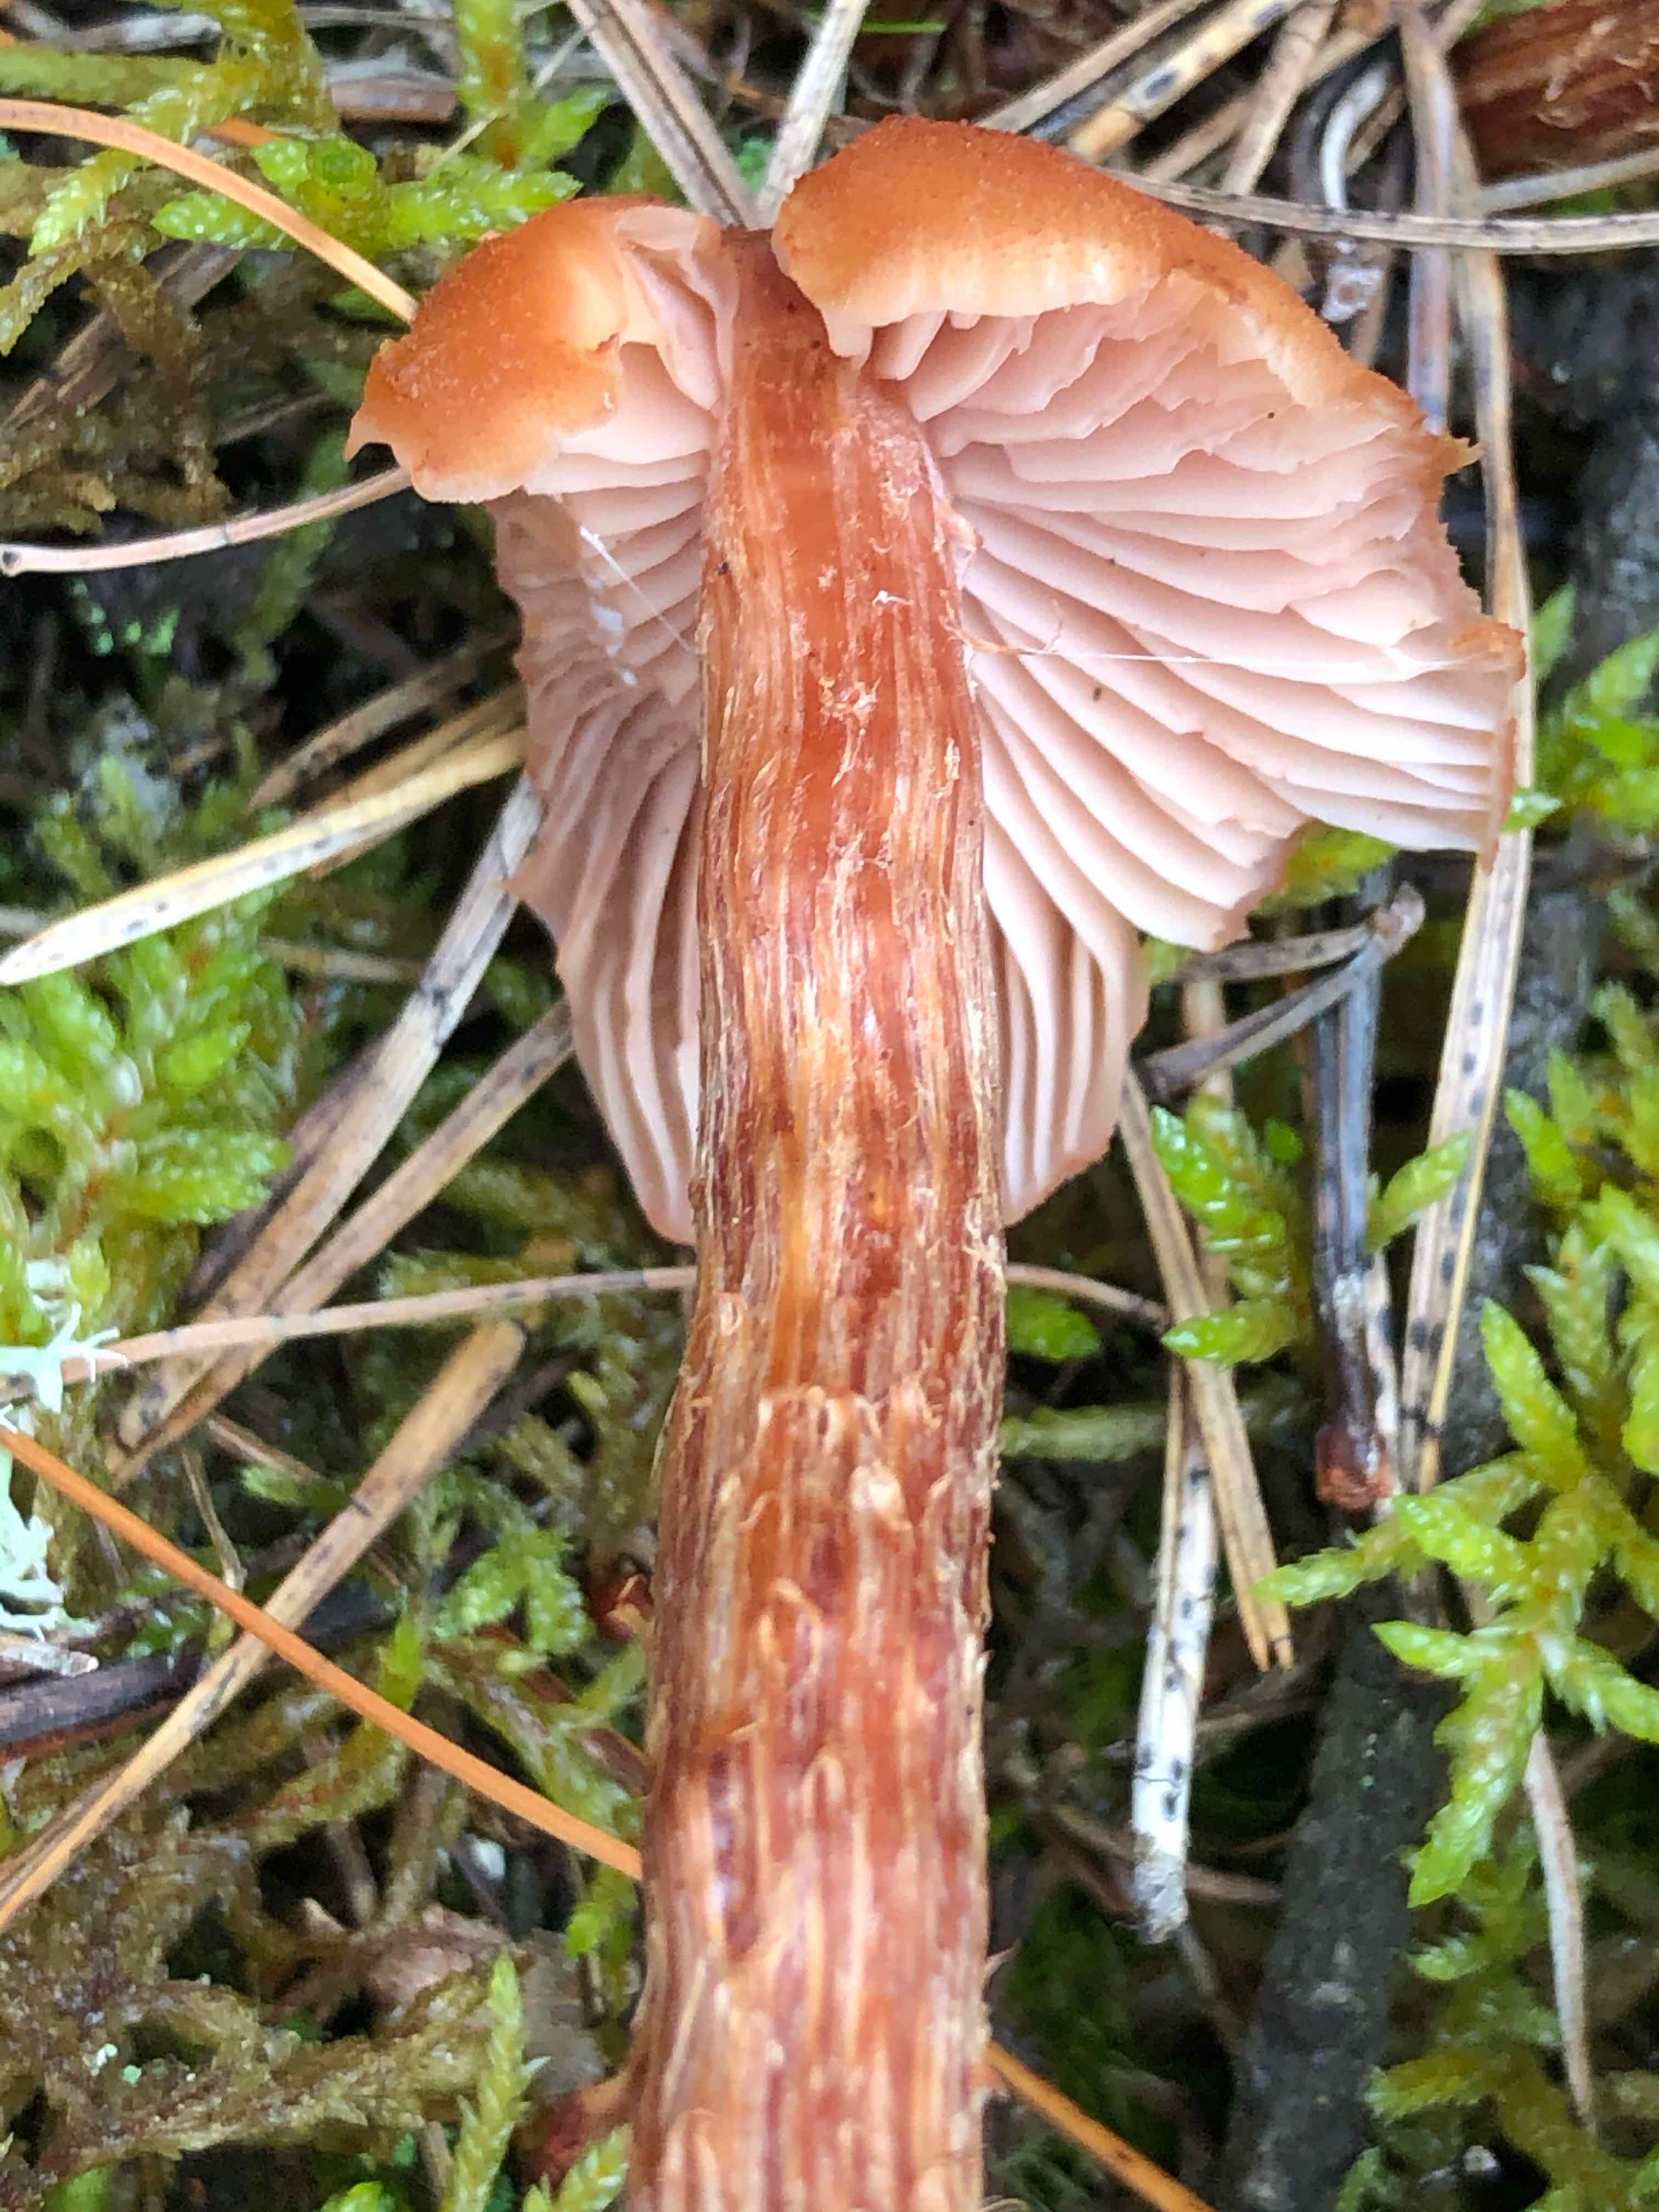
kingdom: Fungi
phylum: Basidiomycota
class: Agaricomycetes
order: Agaricales
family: Hydnangiaceae
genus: Laccaria
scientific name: Laccaria proxima
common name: stor ametysthat
